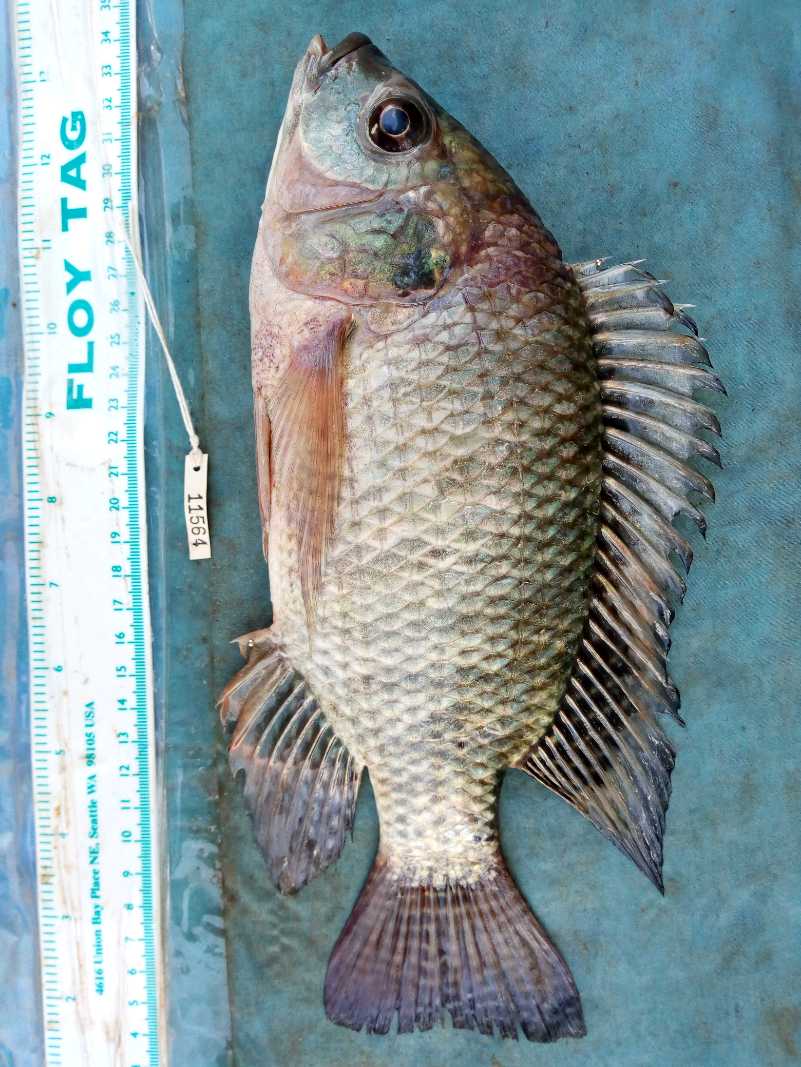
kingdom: Animalia
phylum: Chordata
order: Perciformes
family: Cichlidae
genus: Oreochromis
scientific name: Oreochromis niloticus
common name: Nile tilapia
